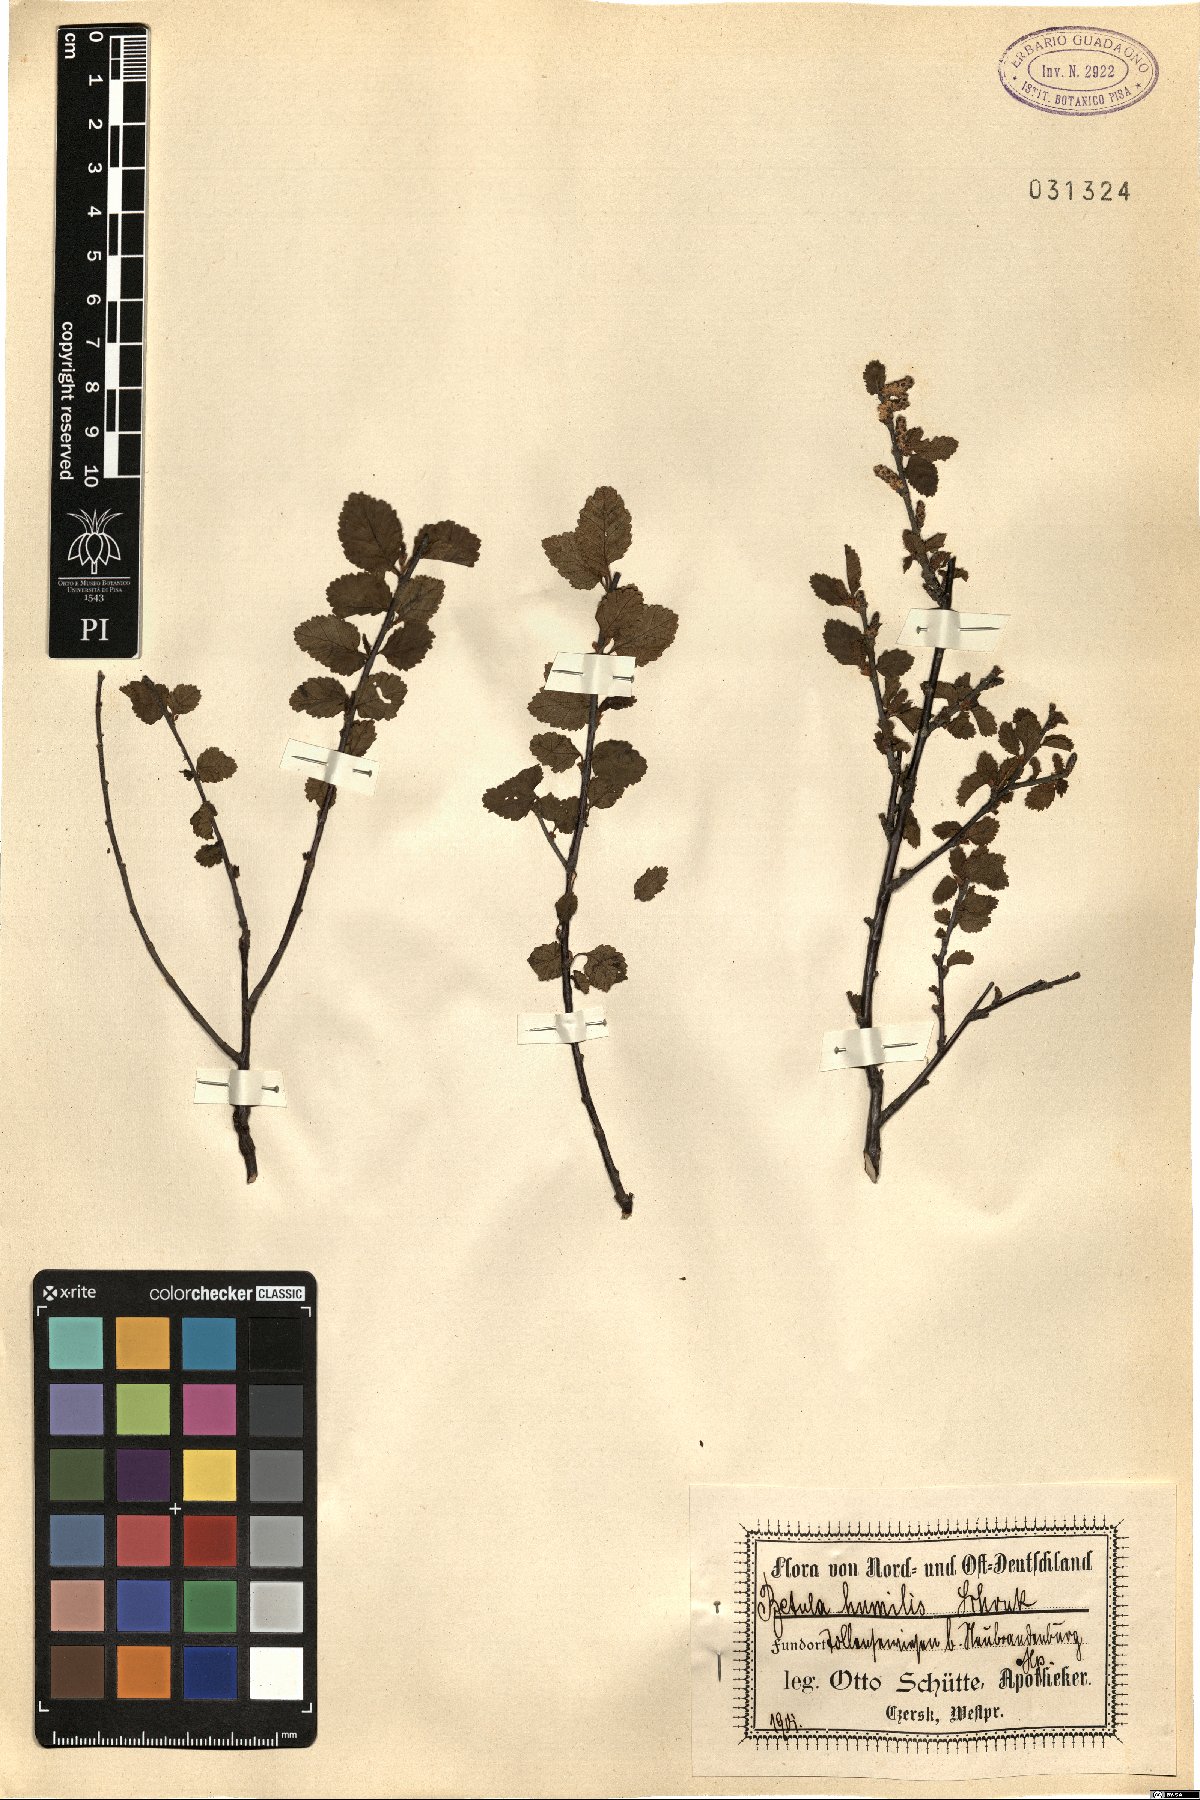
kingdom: Plantae
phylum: Tracheophyta
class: Magnoliopsida
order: Fagales
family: Betulaceae
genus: Betula
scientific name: Betula humilis
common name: Shrubby birch
